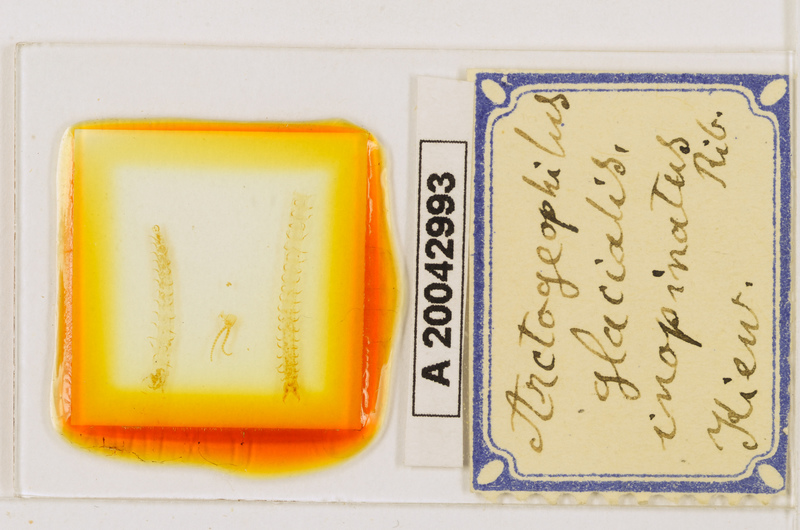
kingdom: Animalia
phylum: Arthropoda
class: Chilopoda
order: Geophilomorpha
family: Geophilidae
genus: Arctogeophilus
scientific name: Arctogeophilus glacialis
